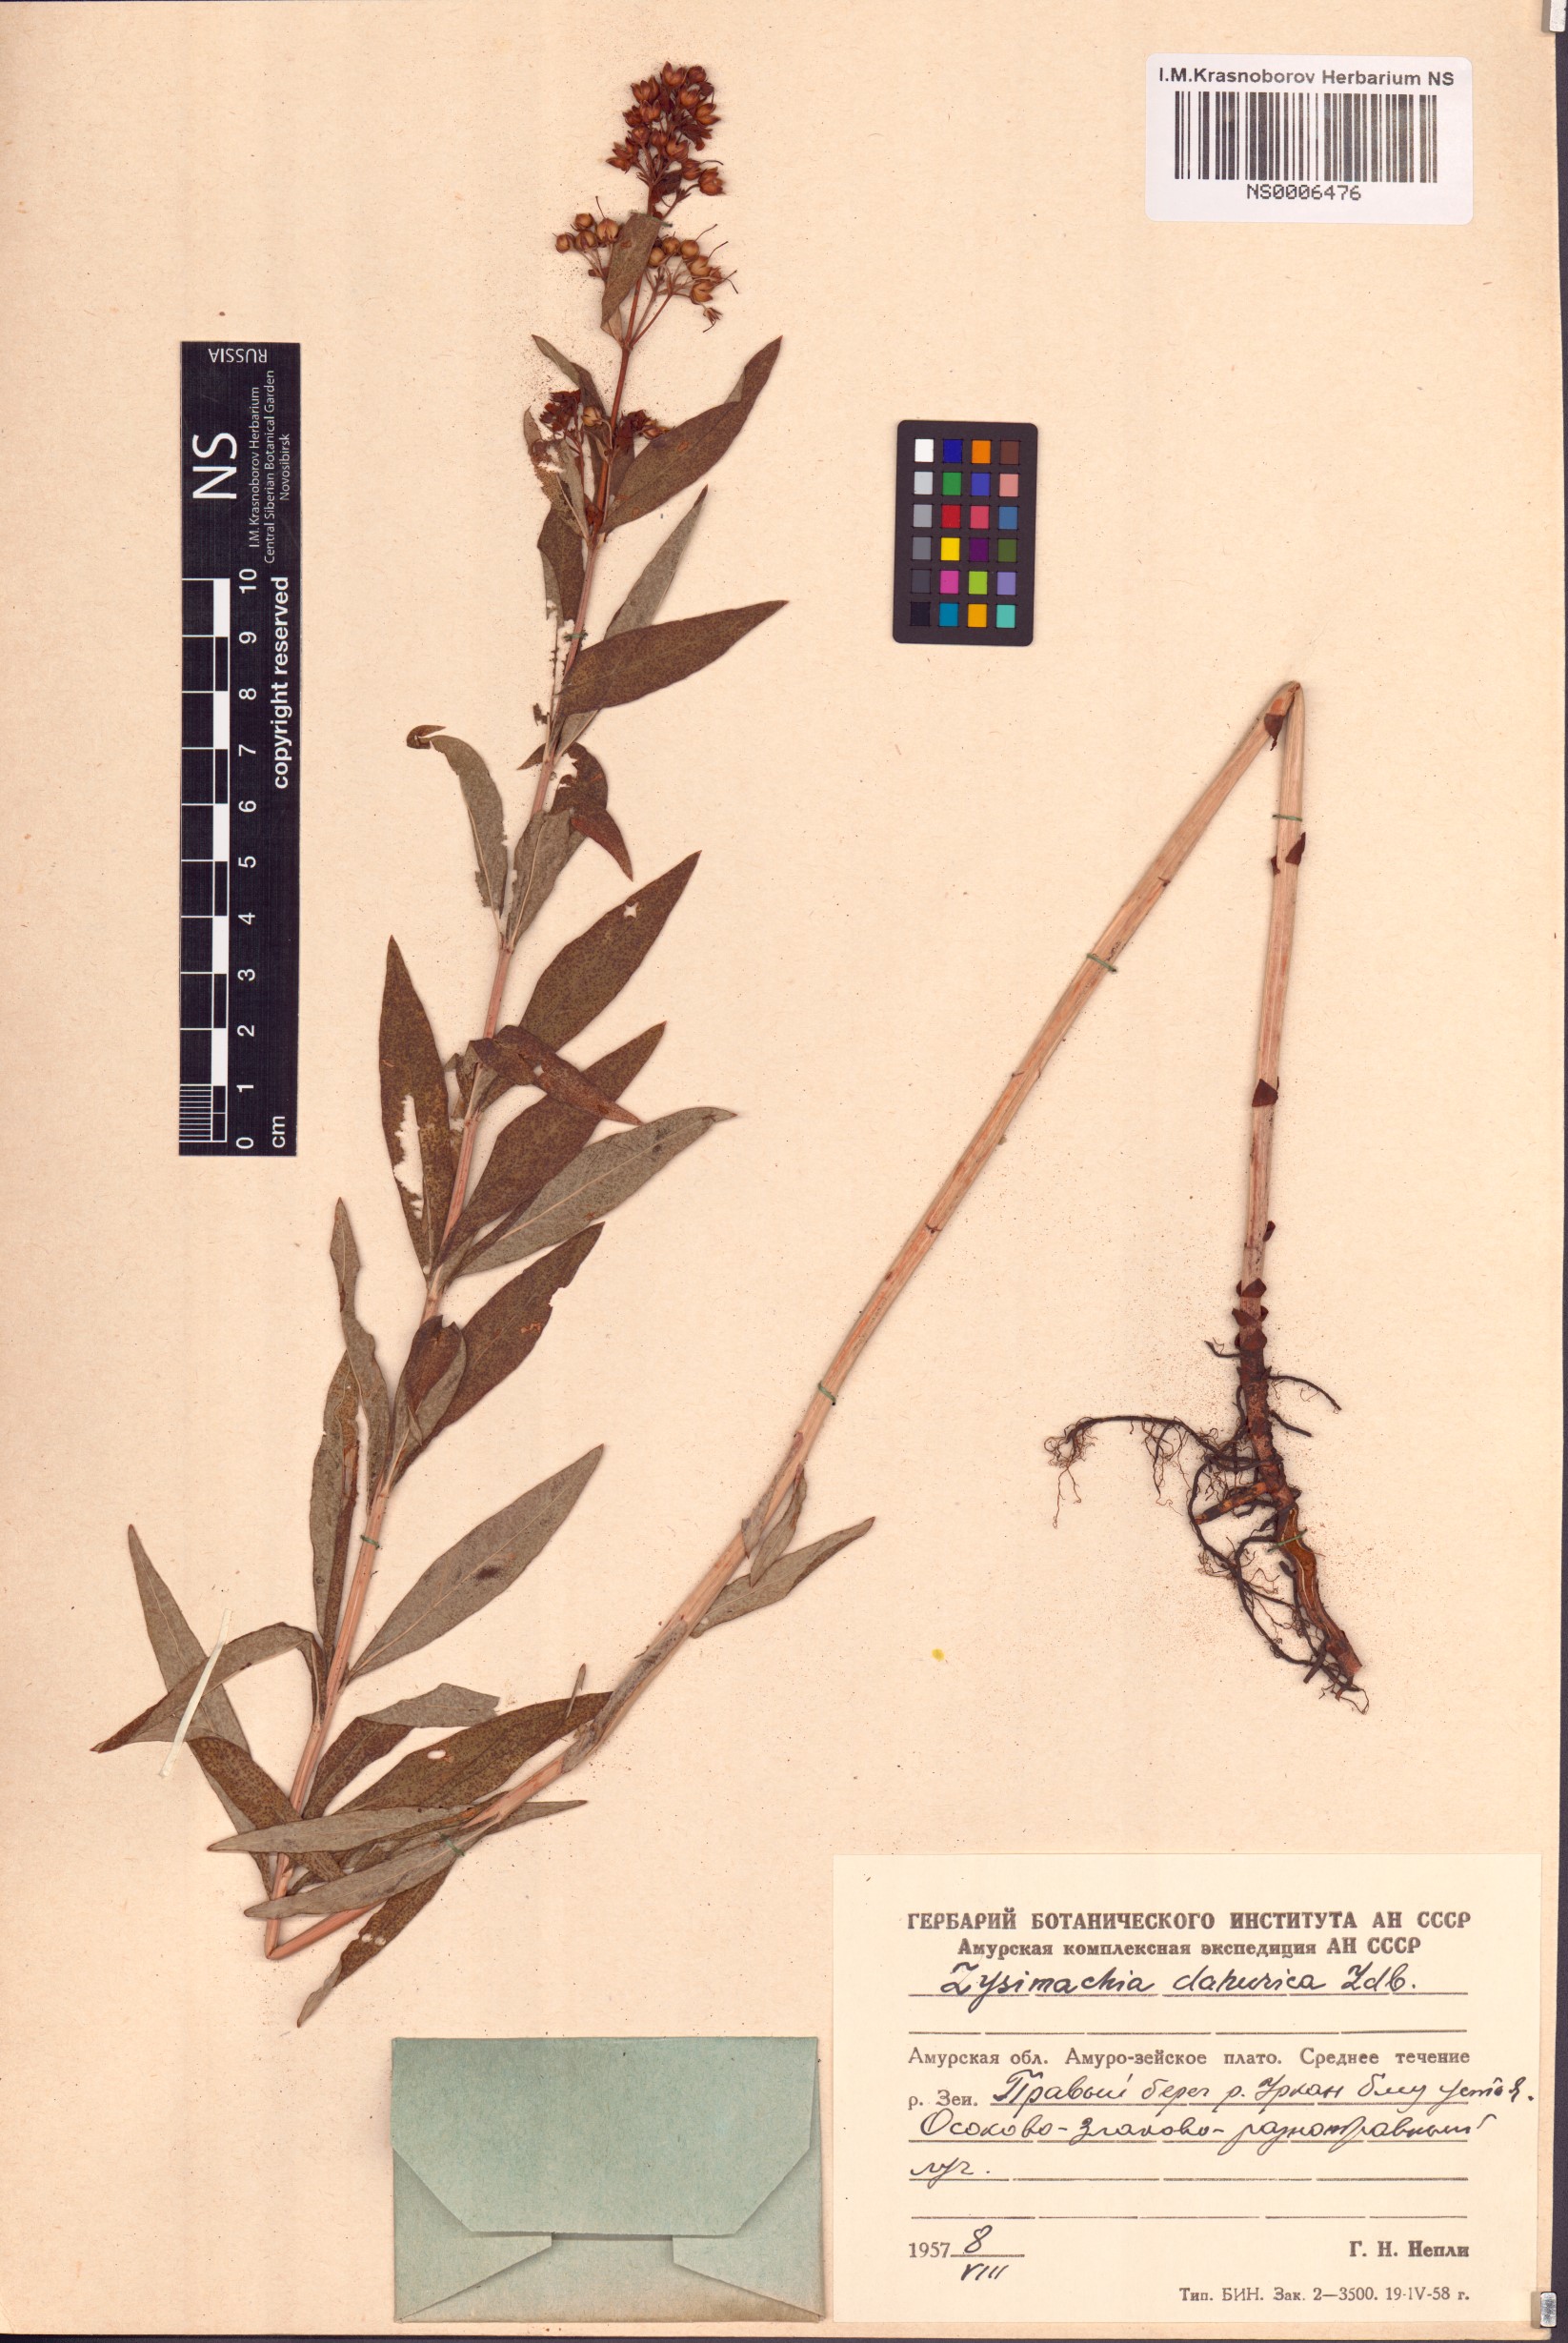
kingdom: Plantae
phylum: Tracheophyta
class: Magnoliopsida
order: Ericales
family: Primulaceae
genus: Lysimachia
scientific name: Lysimachia davurica
